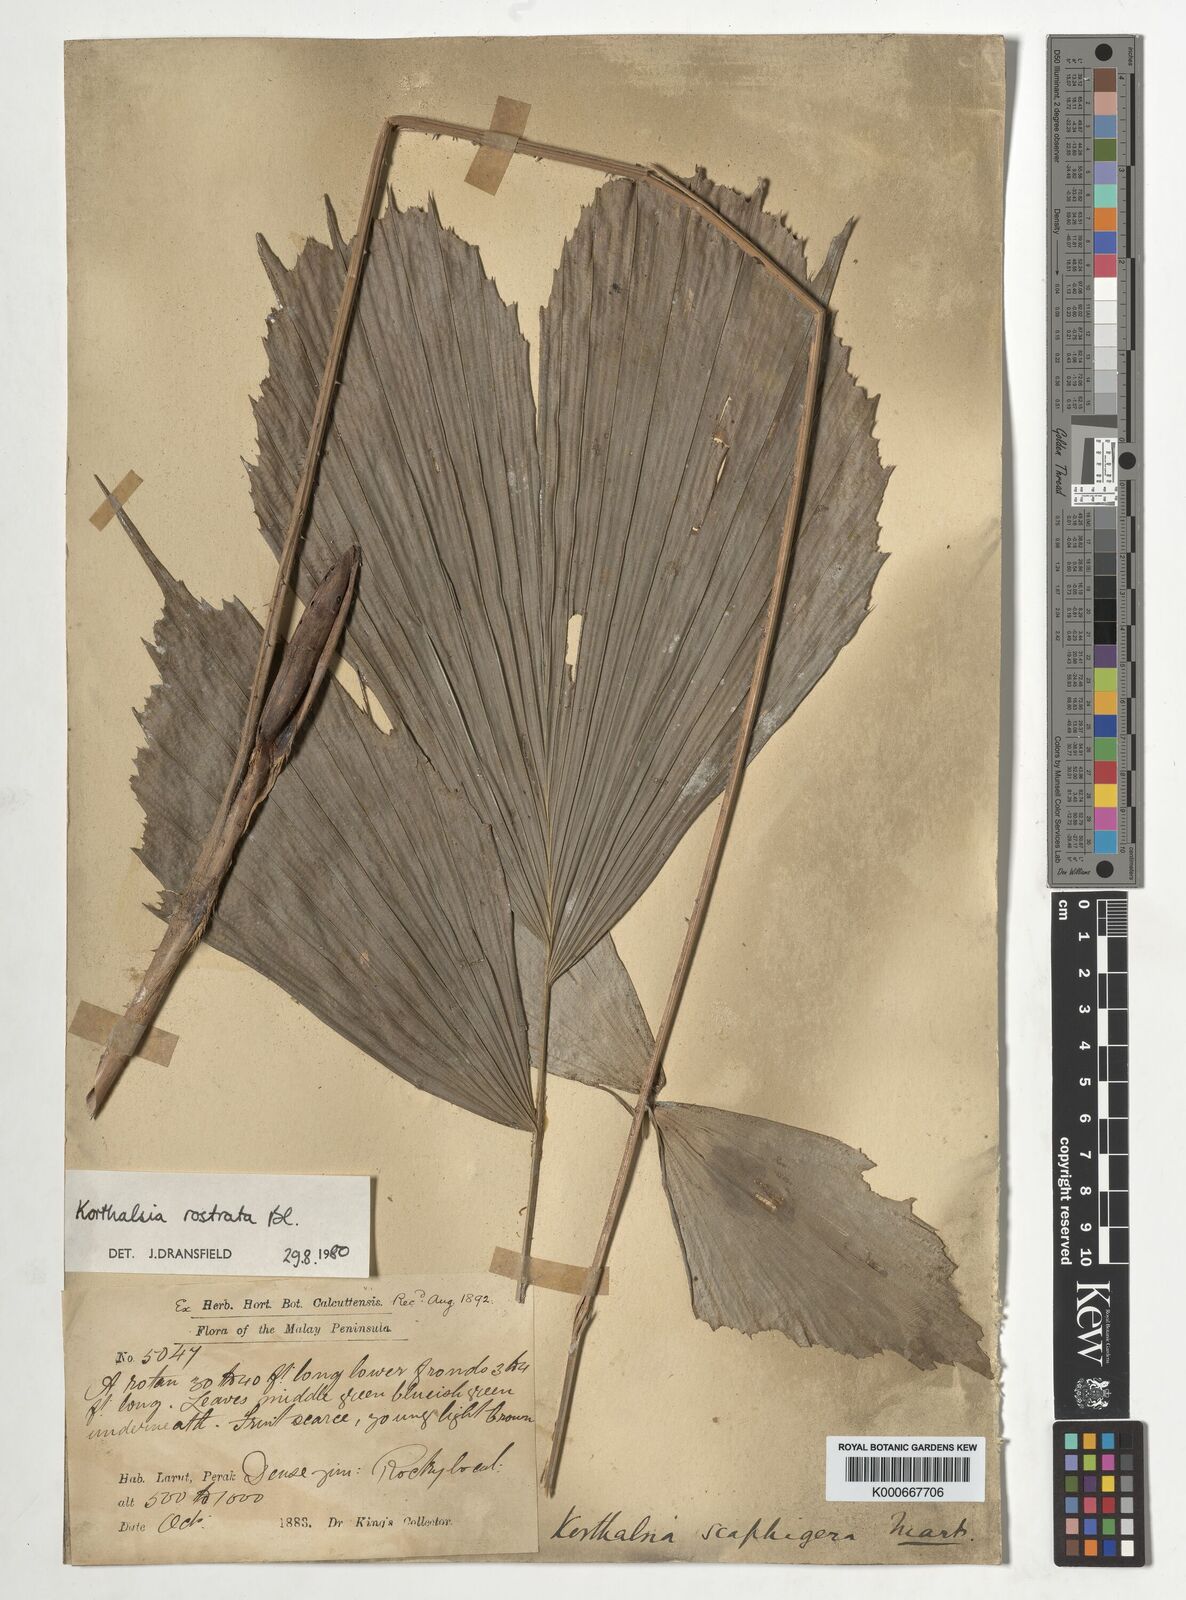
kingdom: Plantae
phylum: Tracheophyta
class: Liliopsida
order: Arecales
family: Arecaceae
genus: Korthalsia
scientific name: Korthalsia rostrata
